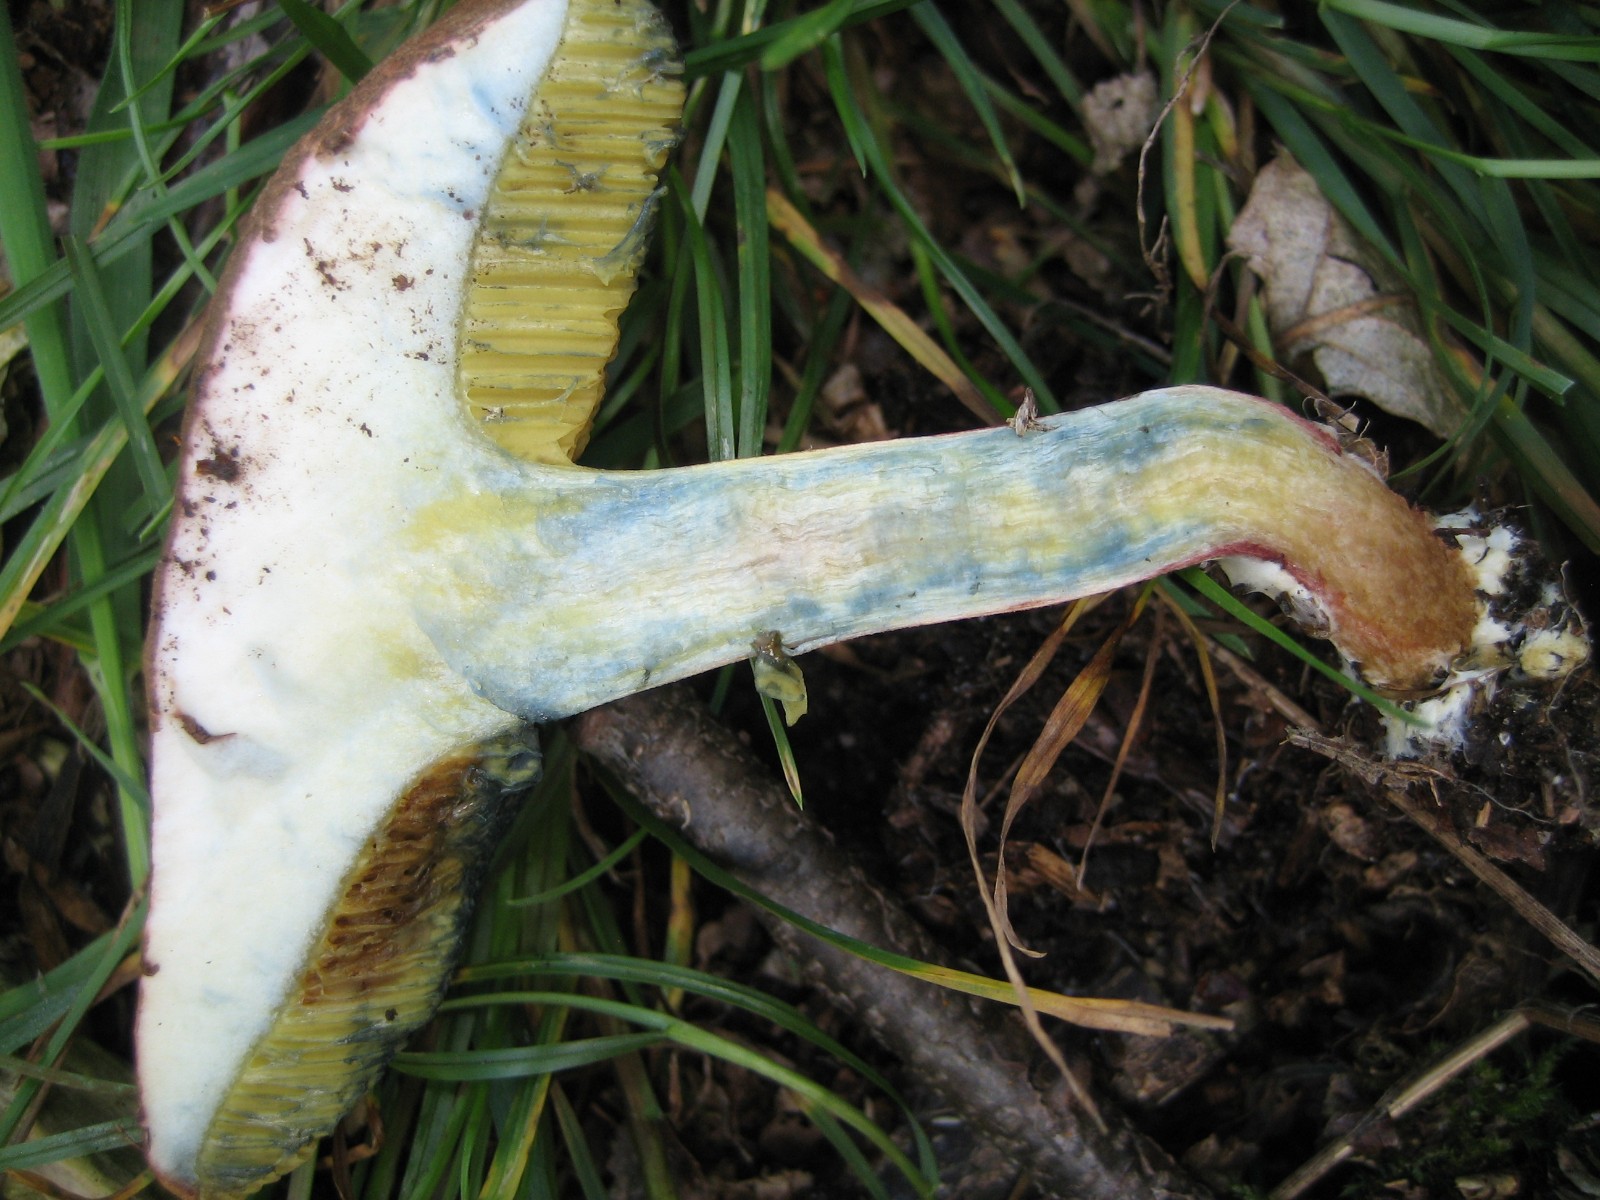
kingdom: Fungi
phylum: Basidiomycota
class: Agaricomycetes
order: Boletales
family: Boletaceae
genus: Xerocomellus
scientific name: Xerocomellus cisalpinus
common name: finsprukken rørhat
